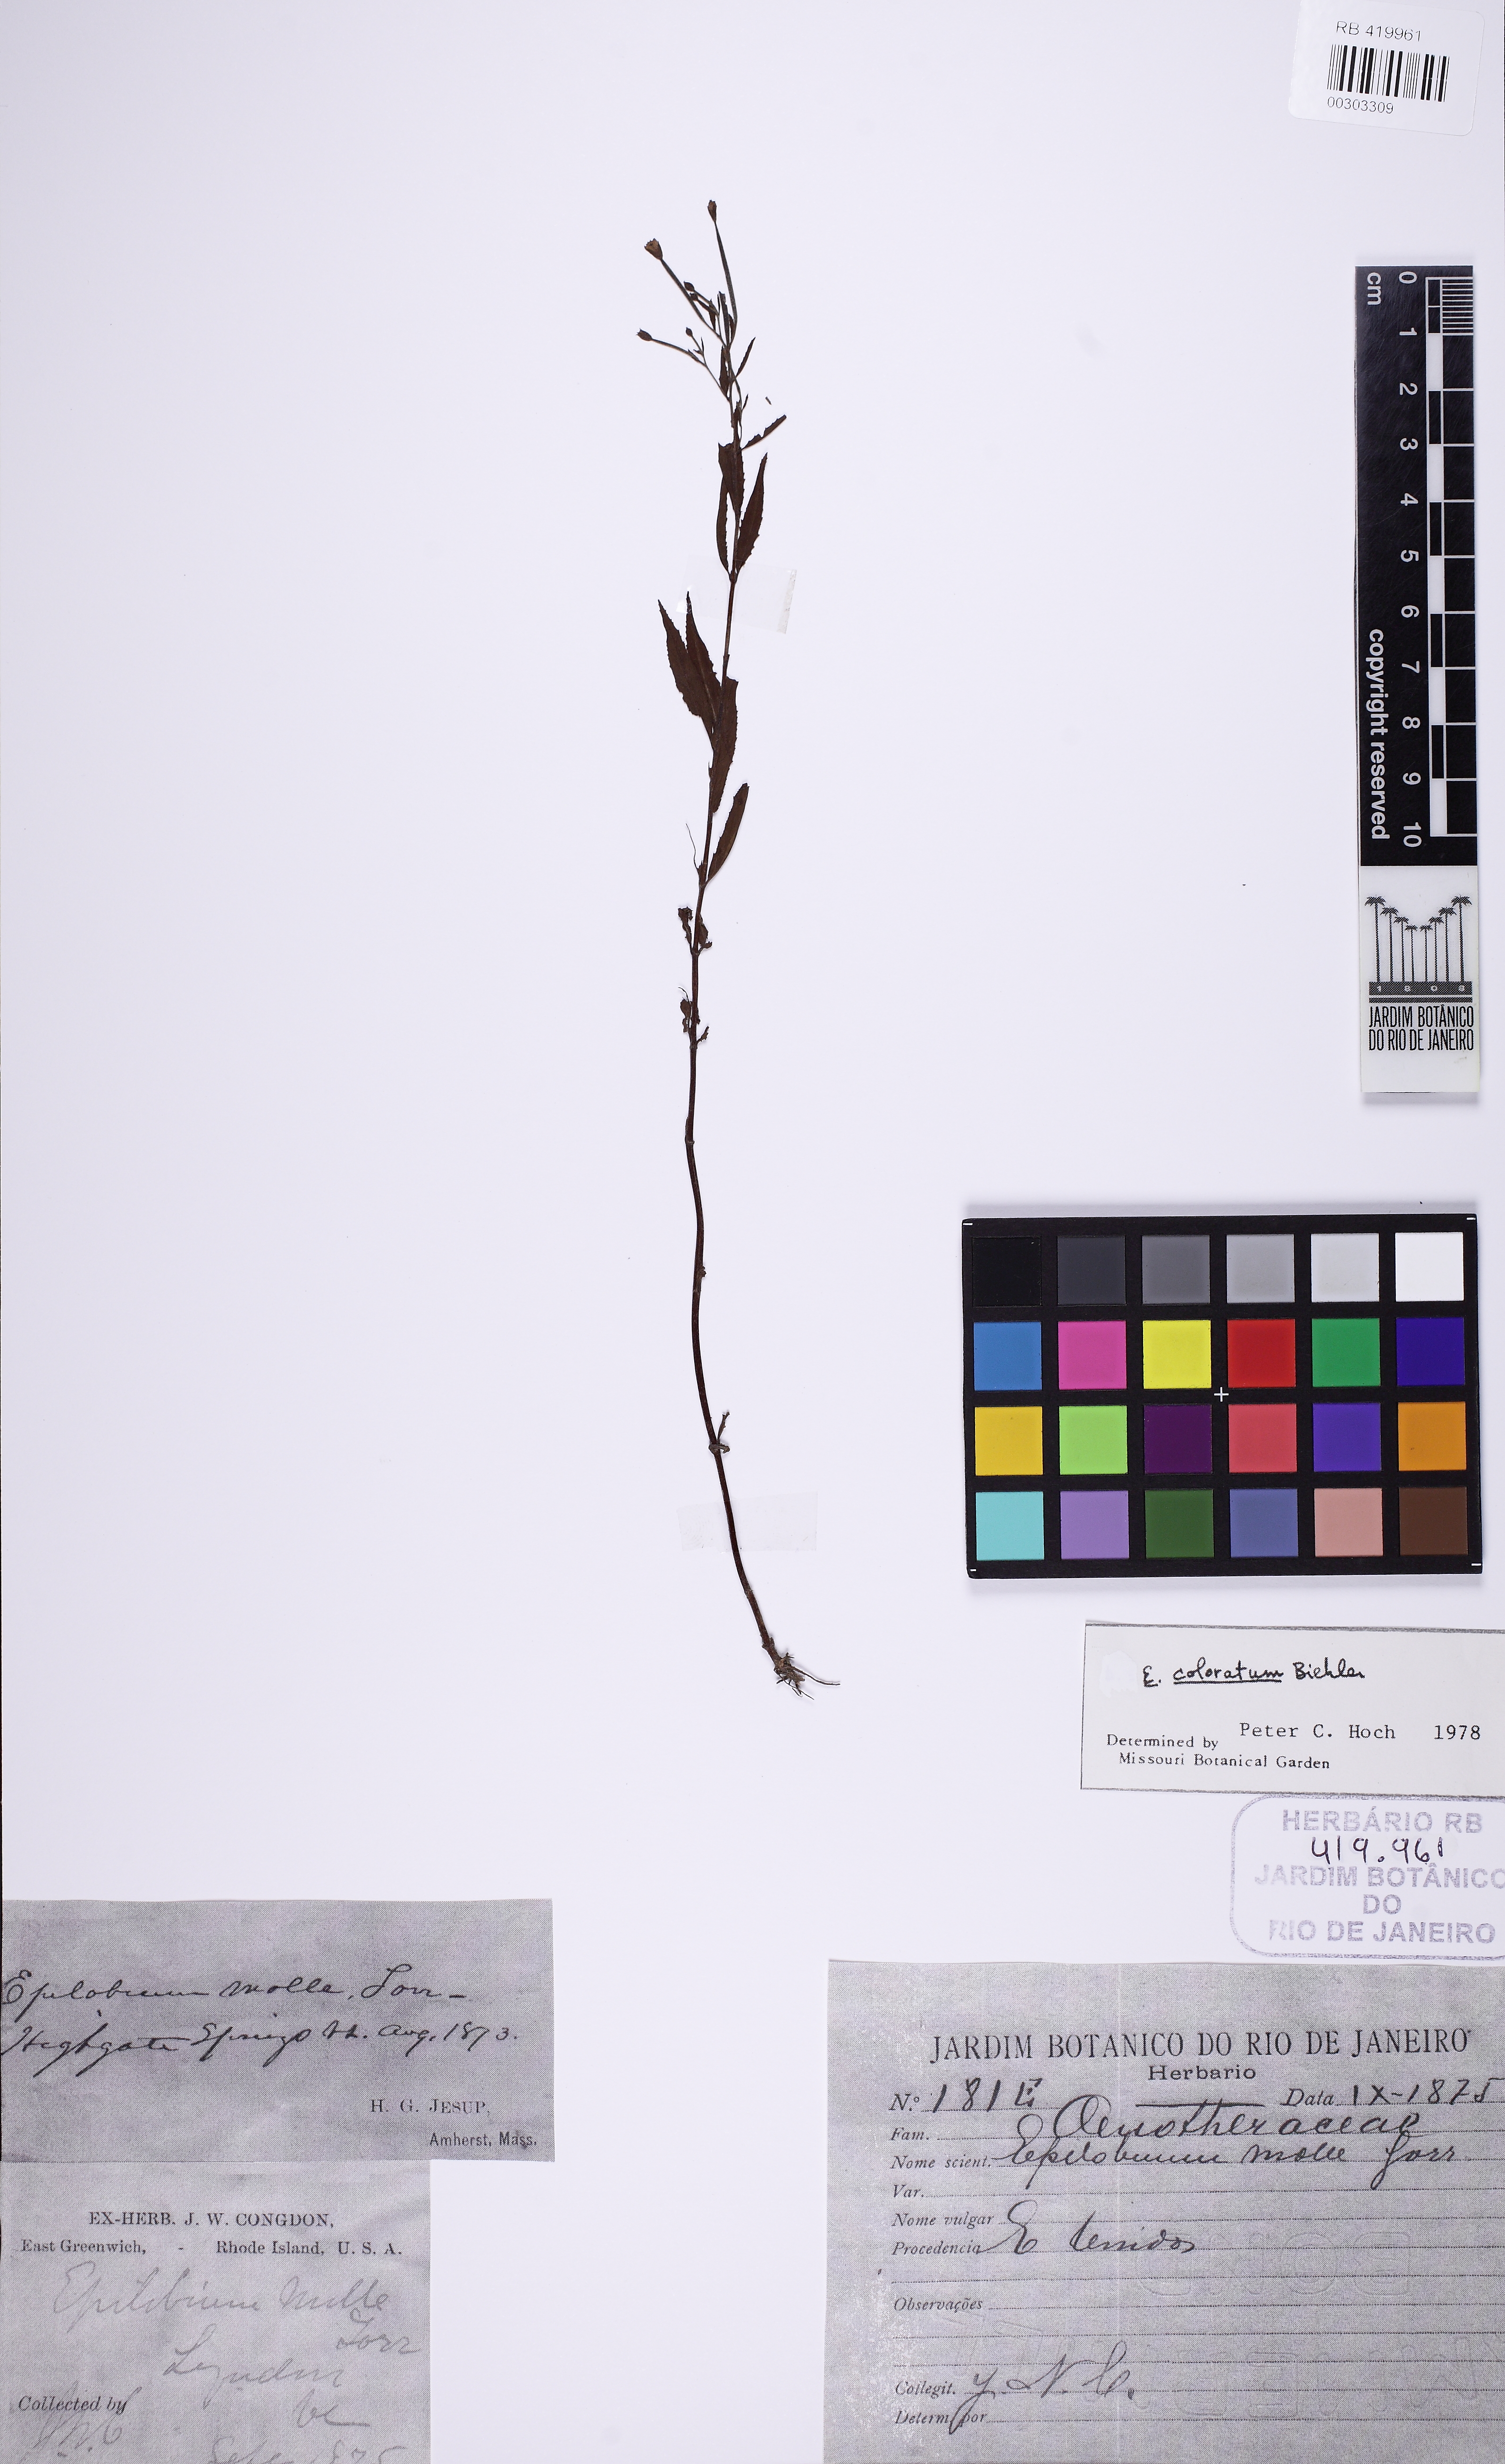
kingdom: Plantae
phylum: Tracheophyta
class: Magnoliopsida
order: Myrtales
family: Onagraceae
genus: Epilobium
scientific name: Epilobium coloratum
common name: Bronze willowherb
